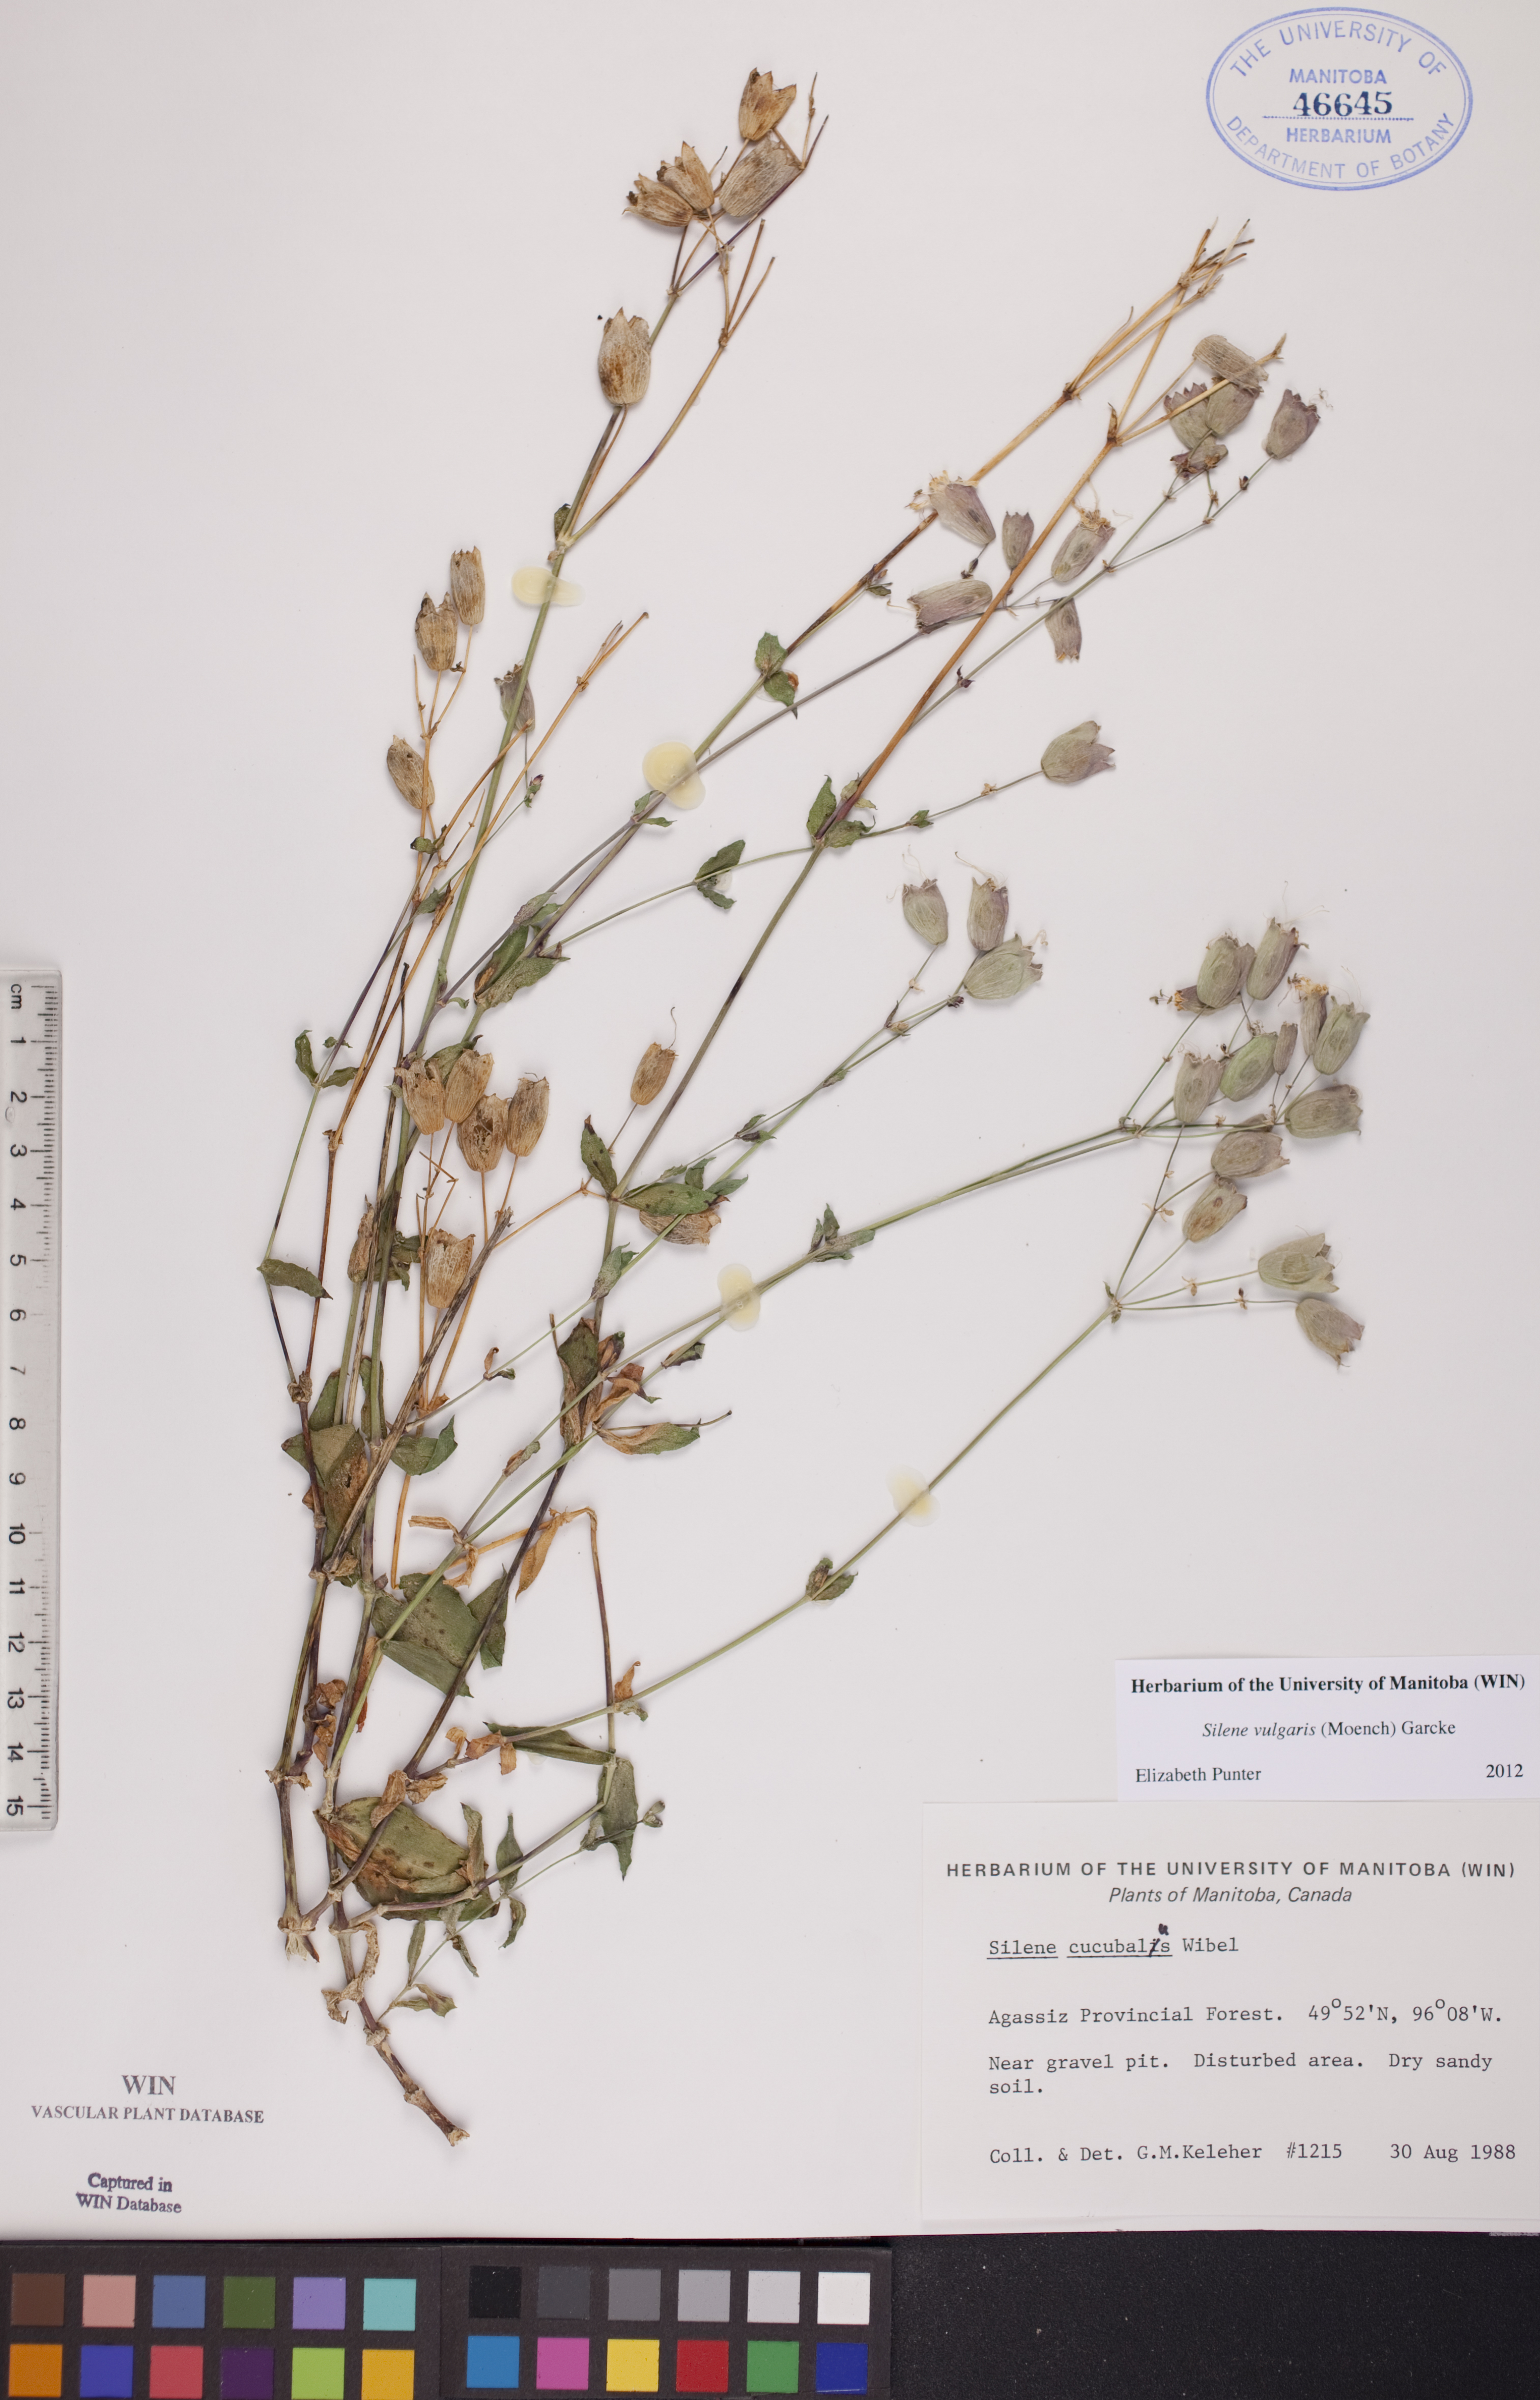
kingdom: Plantae
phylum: Tracheophyta
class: Magnoliopsida
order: Caryophyllales
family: Caryophyllaceae
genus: Silene
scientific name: Silene vulgaris
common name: Bladder campion
